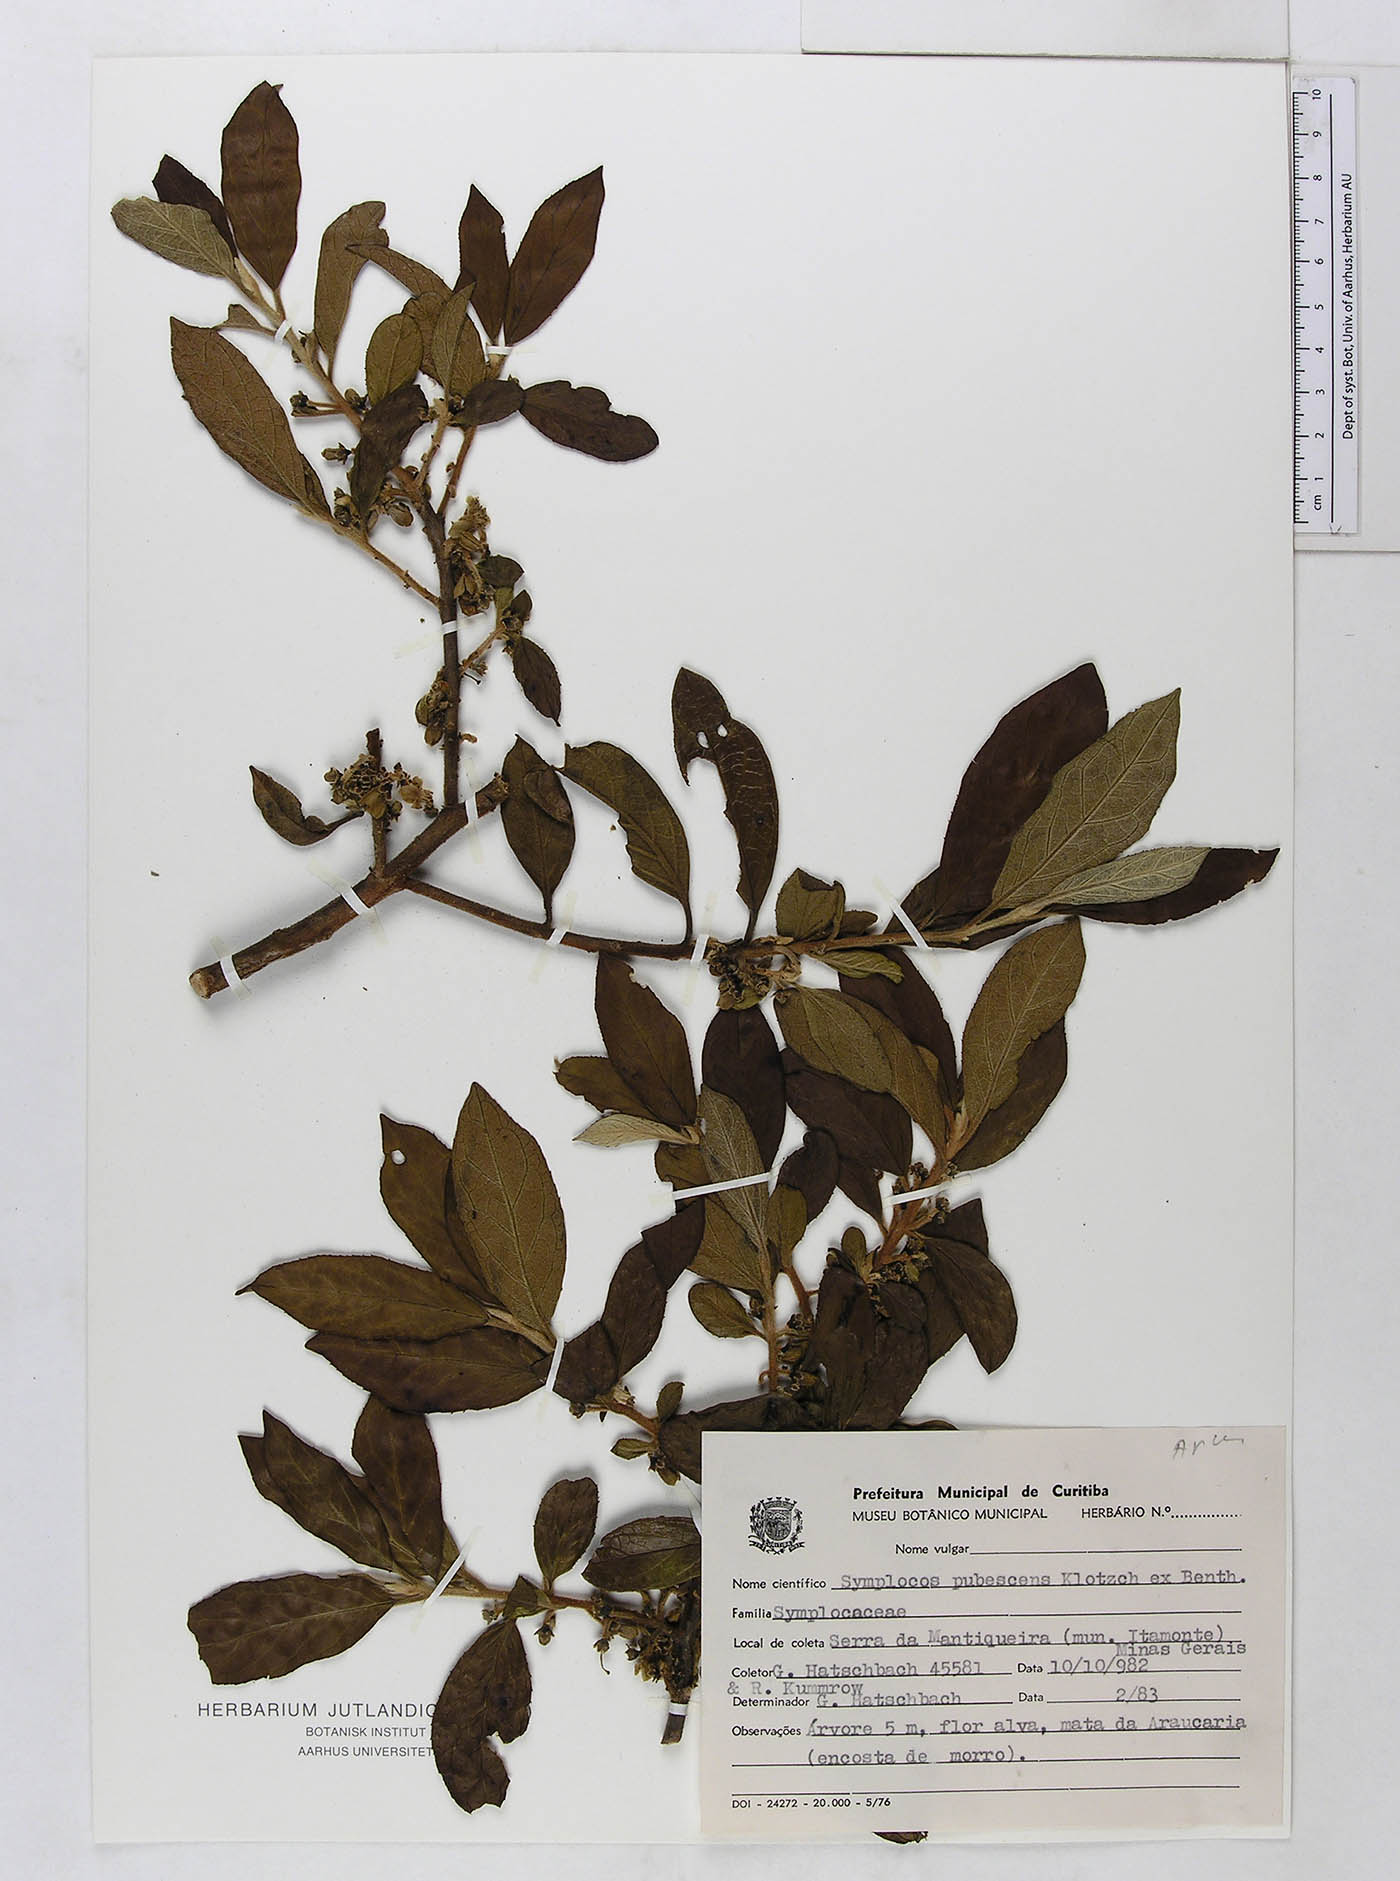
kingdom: Plantae
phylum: Tracheophyta
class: Magnoliopsida
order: Ericales
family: Symplocaceae
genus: Symplocos
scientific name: Symplocos pubescens
